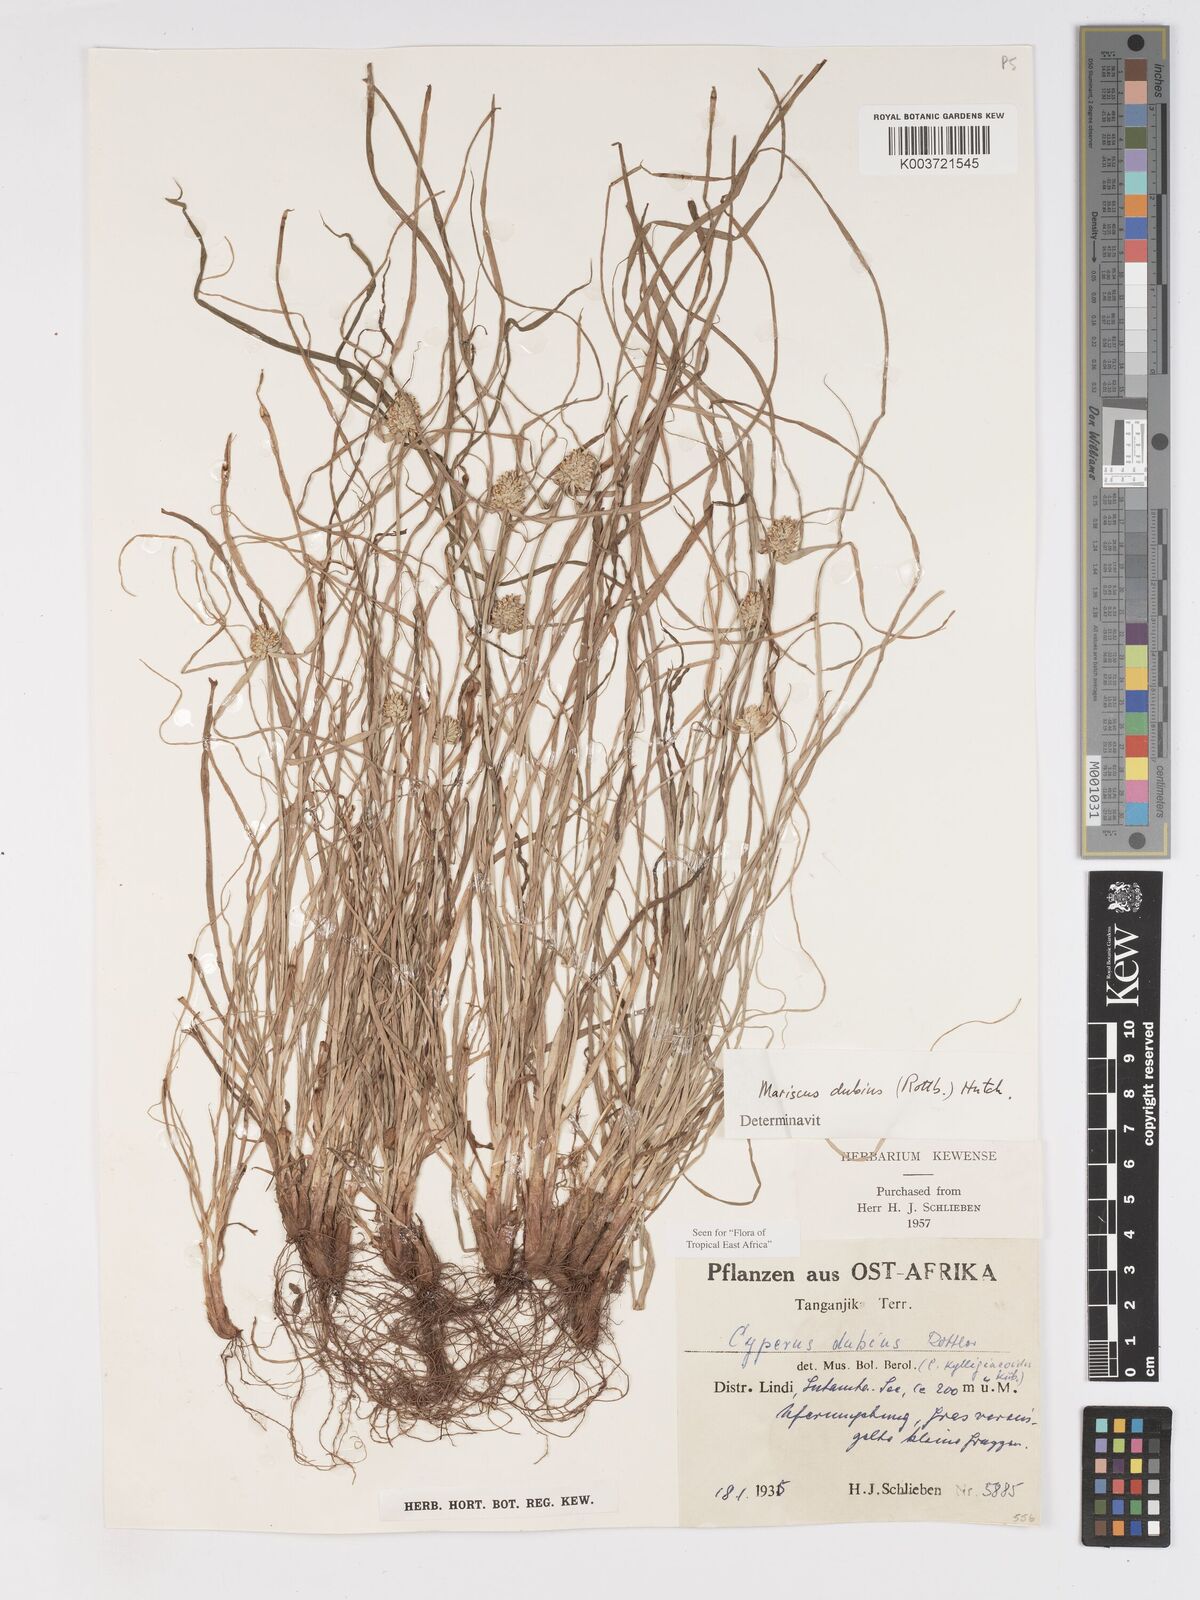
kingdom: Plantae
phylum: Tracheophyta
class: Liliopsida
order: Poales
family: Cyperaceae
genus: Cyperus
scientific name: Cyperus dubius
